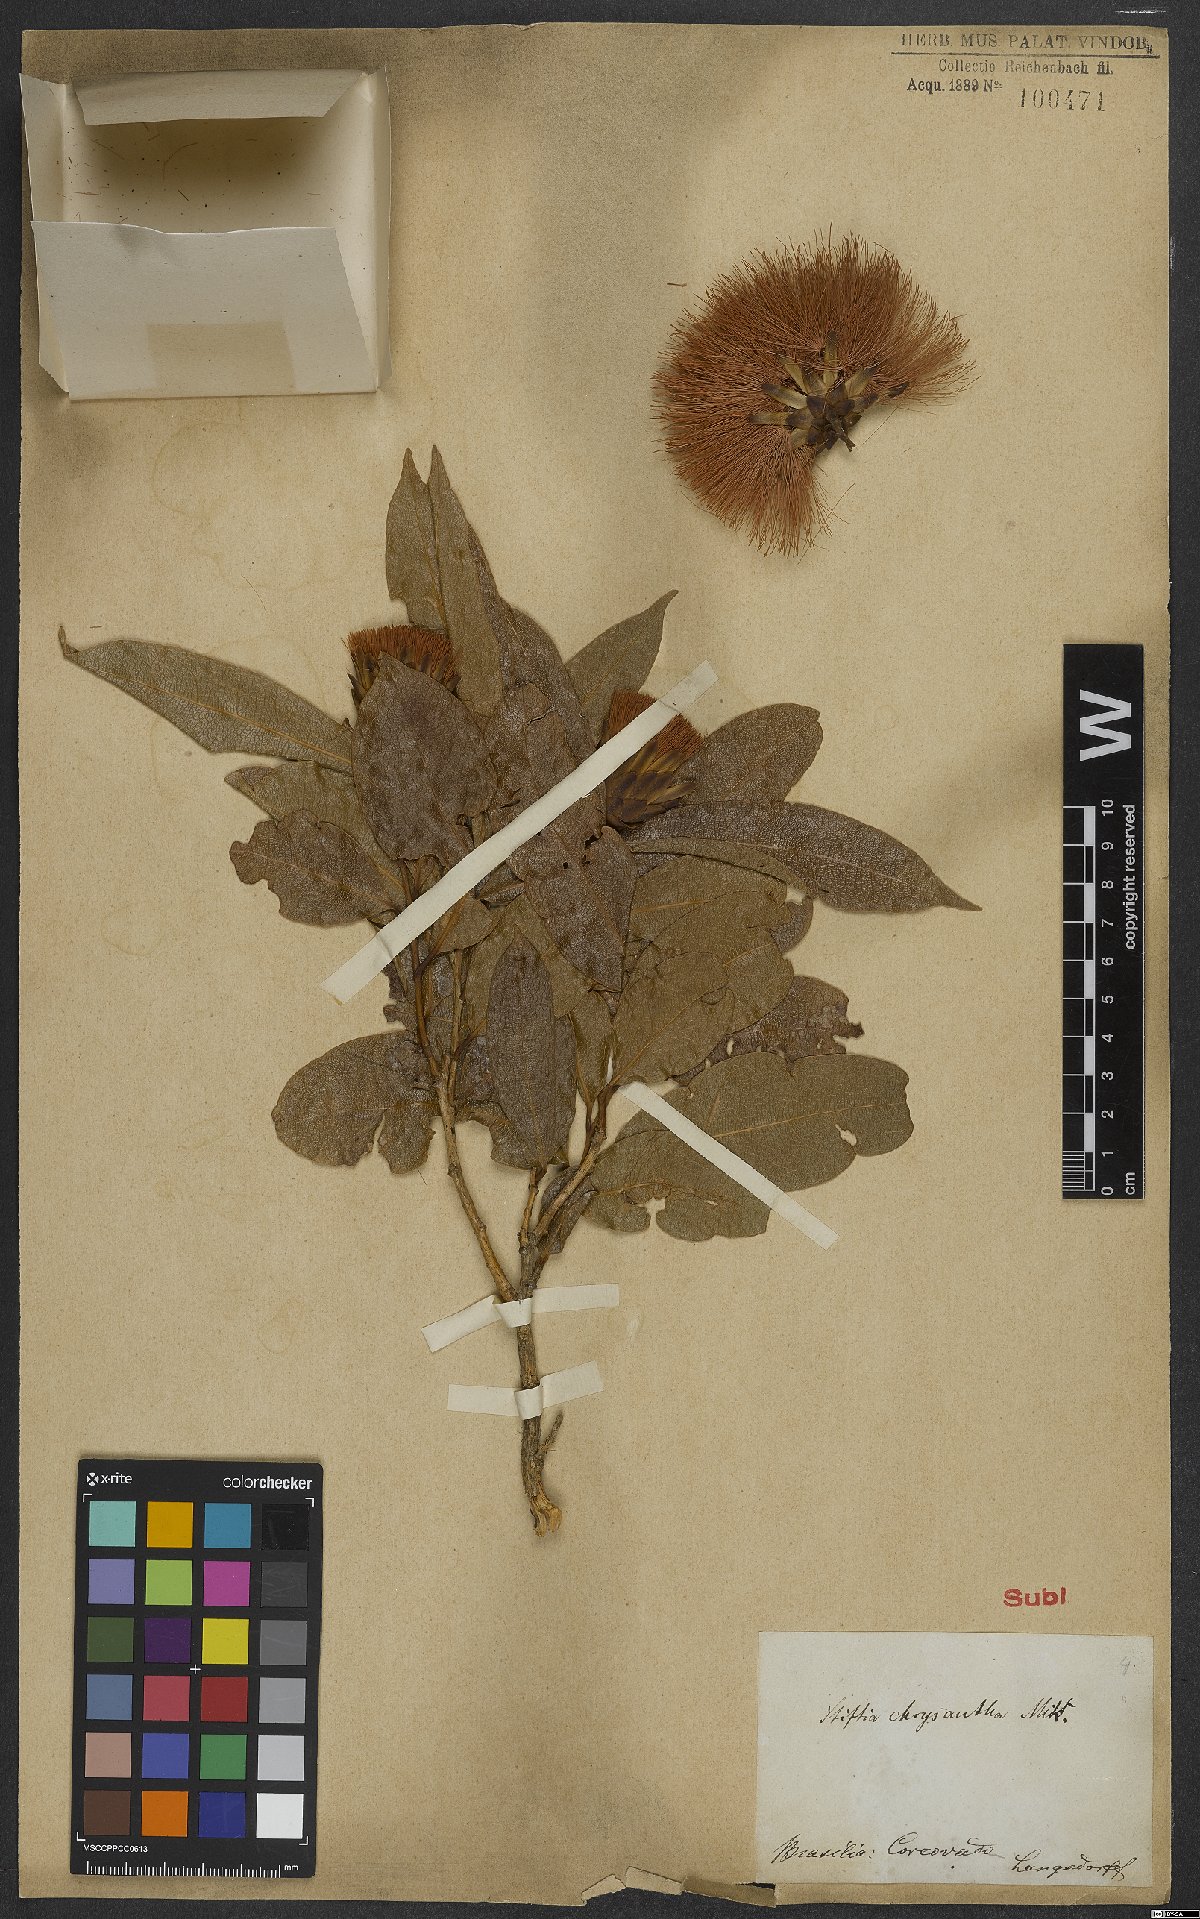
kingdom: Plantae
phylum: Tracheophyta
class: Magnoliopsida
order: Asterales
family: Asteraceae
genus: Stifftia
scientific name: Stifftia chrysantha
